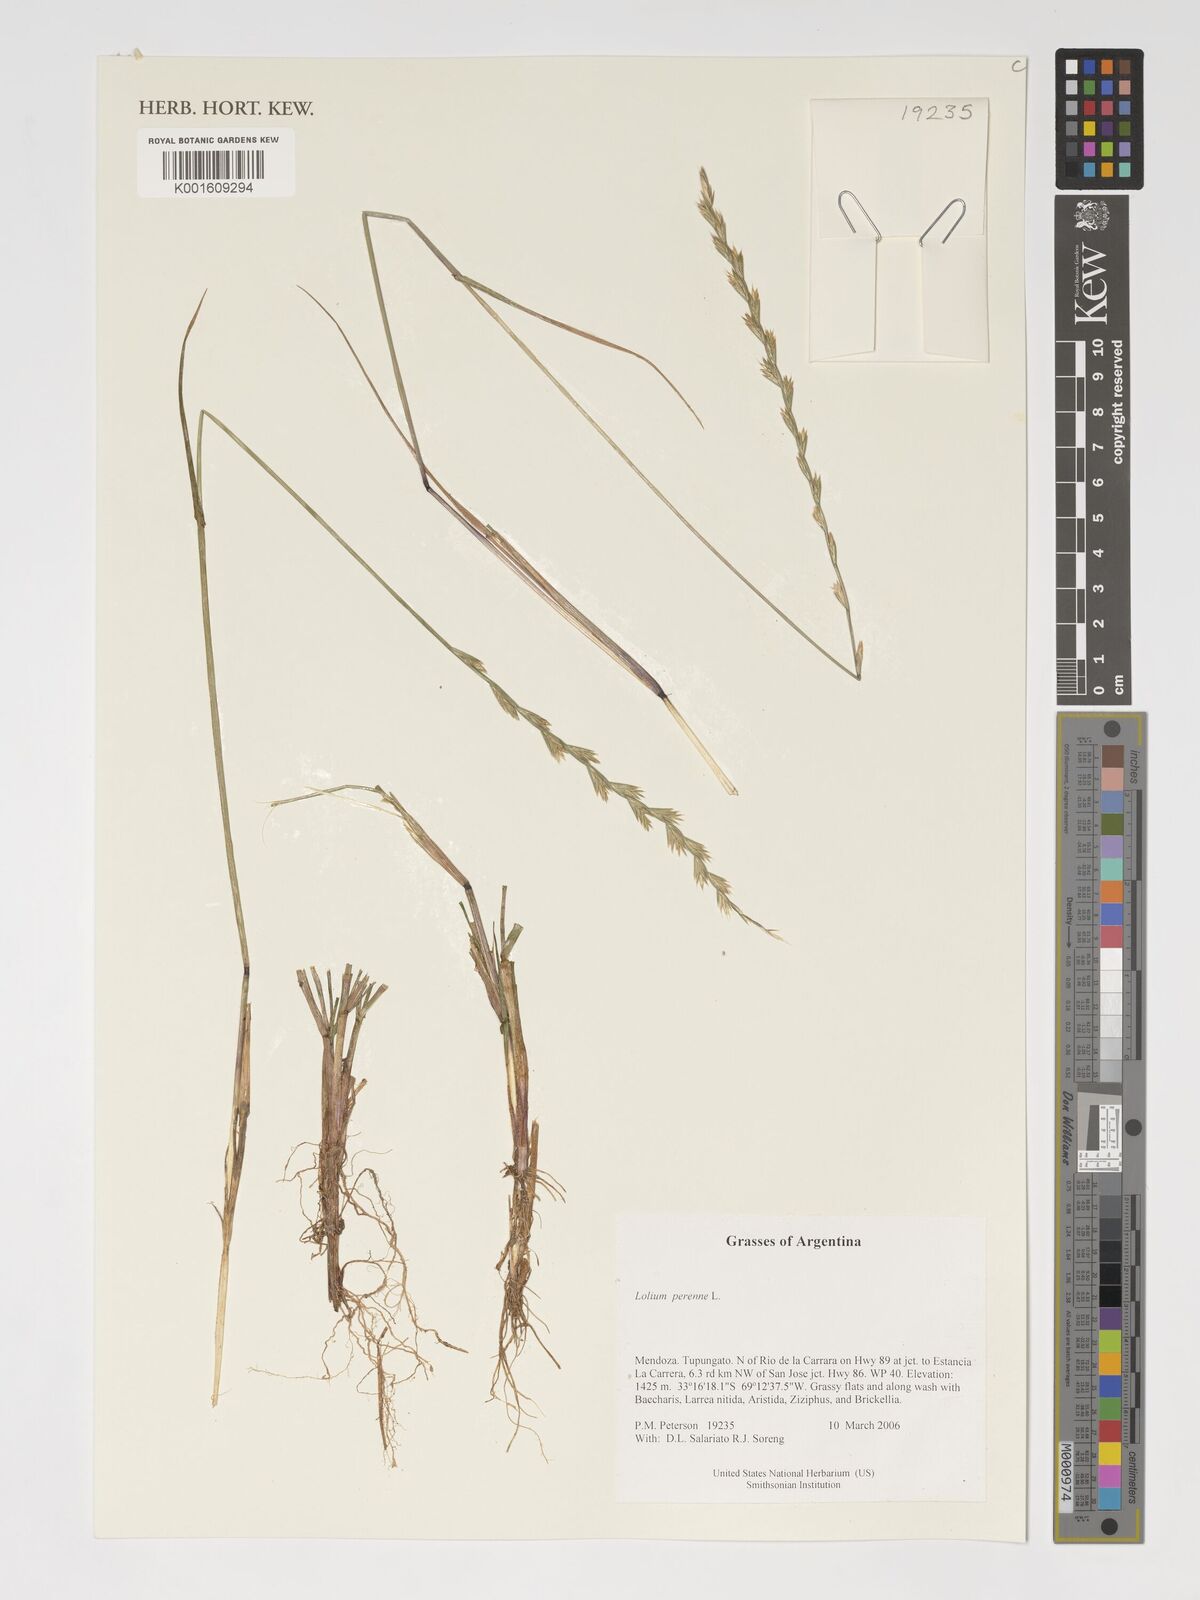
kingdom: Plantae
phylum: Tracheophyta
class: Liliopsida
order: Poales
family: Poaceae
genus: Lolium
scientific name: Lolium perenne
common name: Perennial ryegrass
